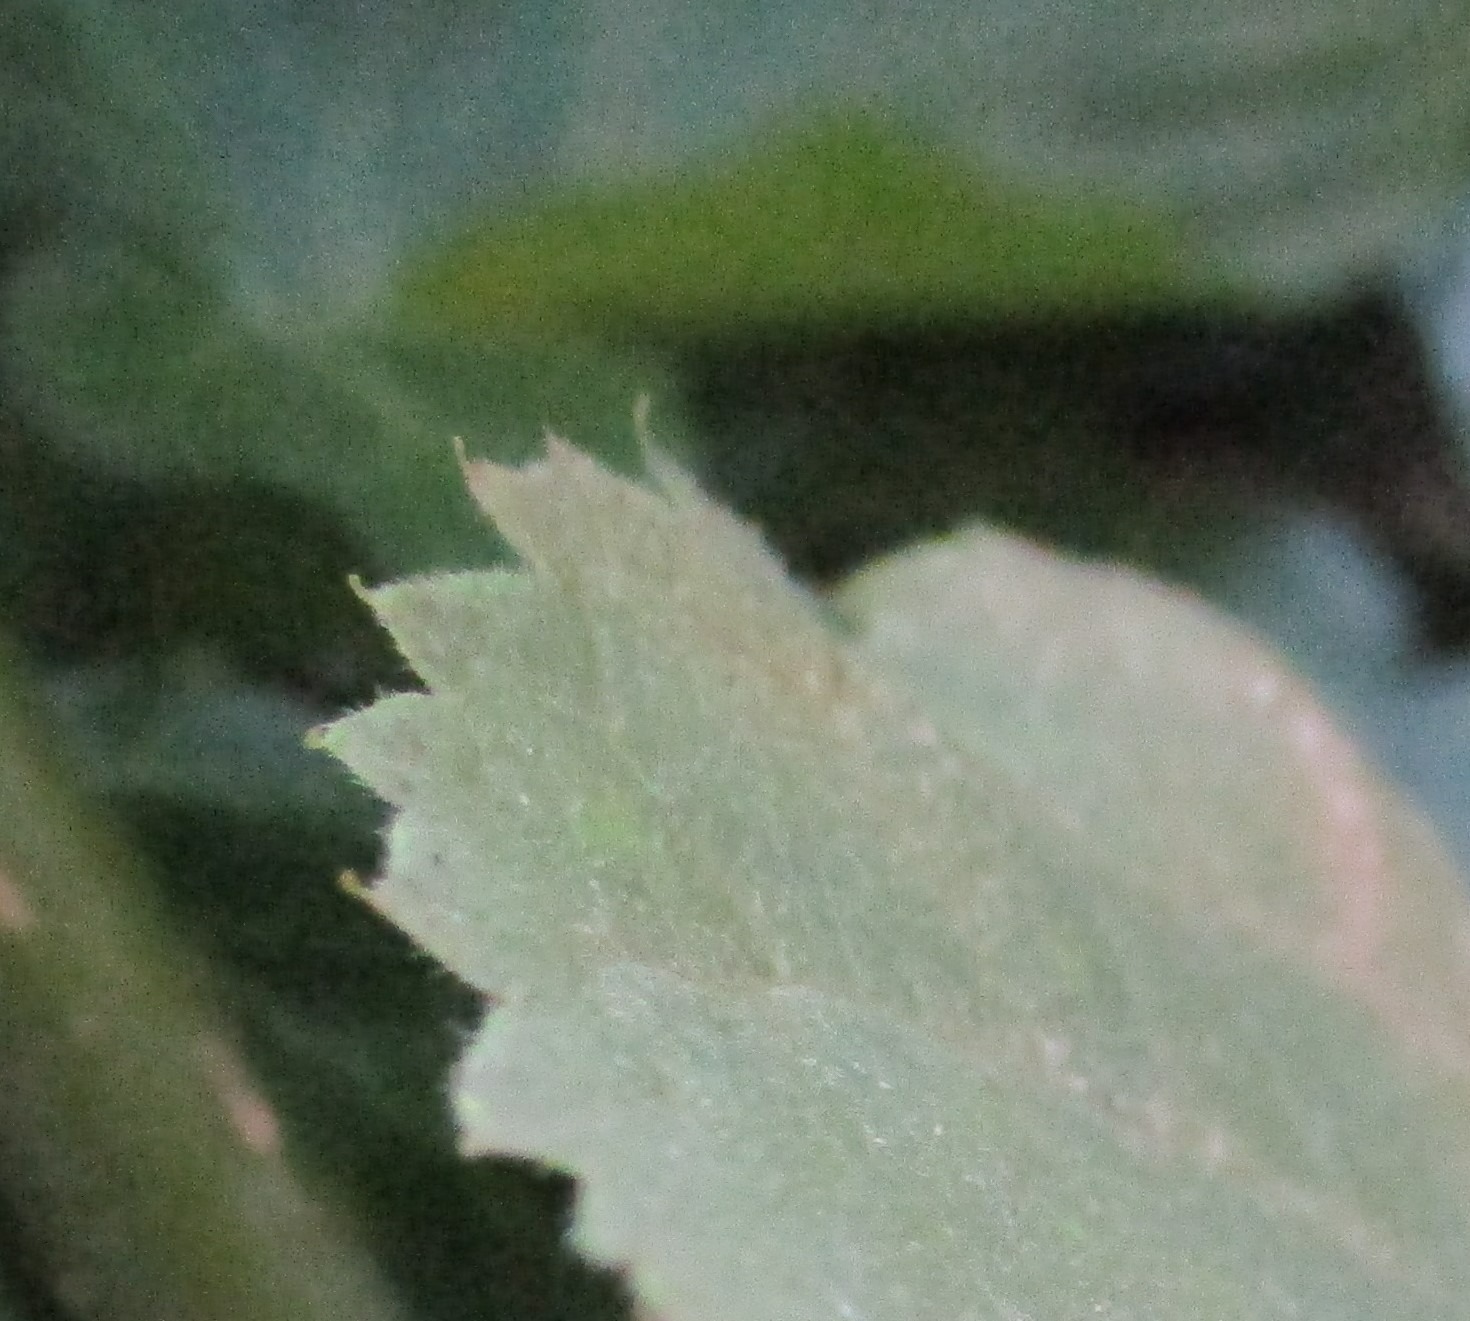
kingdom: Plantae
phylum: Tracheophyta
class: Magnoliopsida
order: Malvales
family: Malvaceae
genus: Tilia
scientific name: Tilia
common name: Lindeslægten
